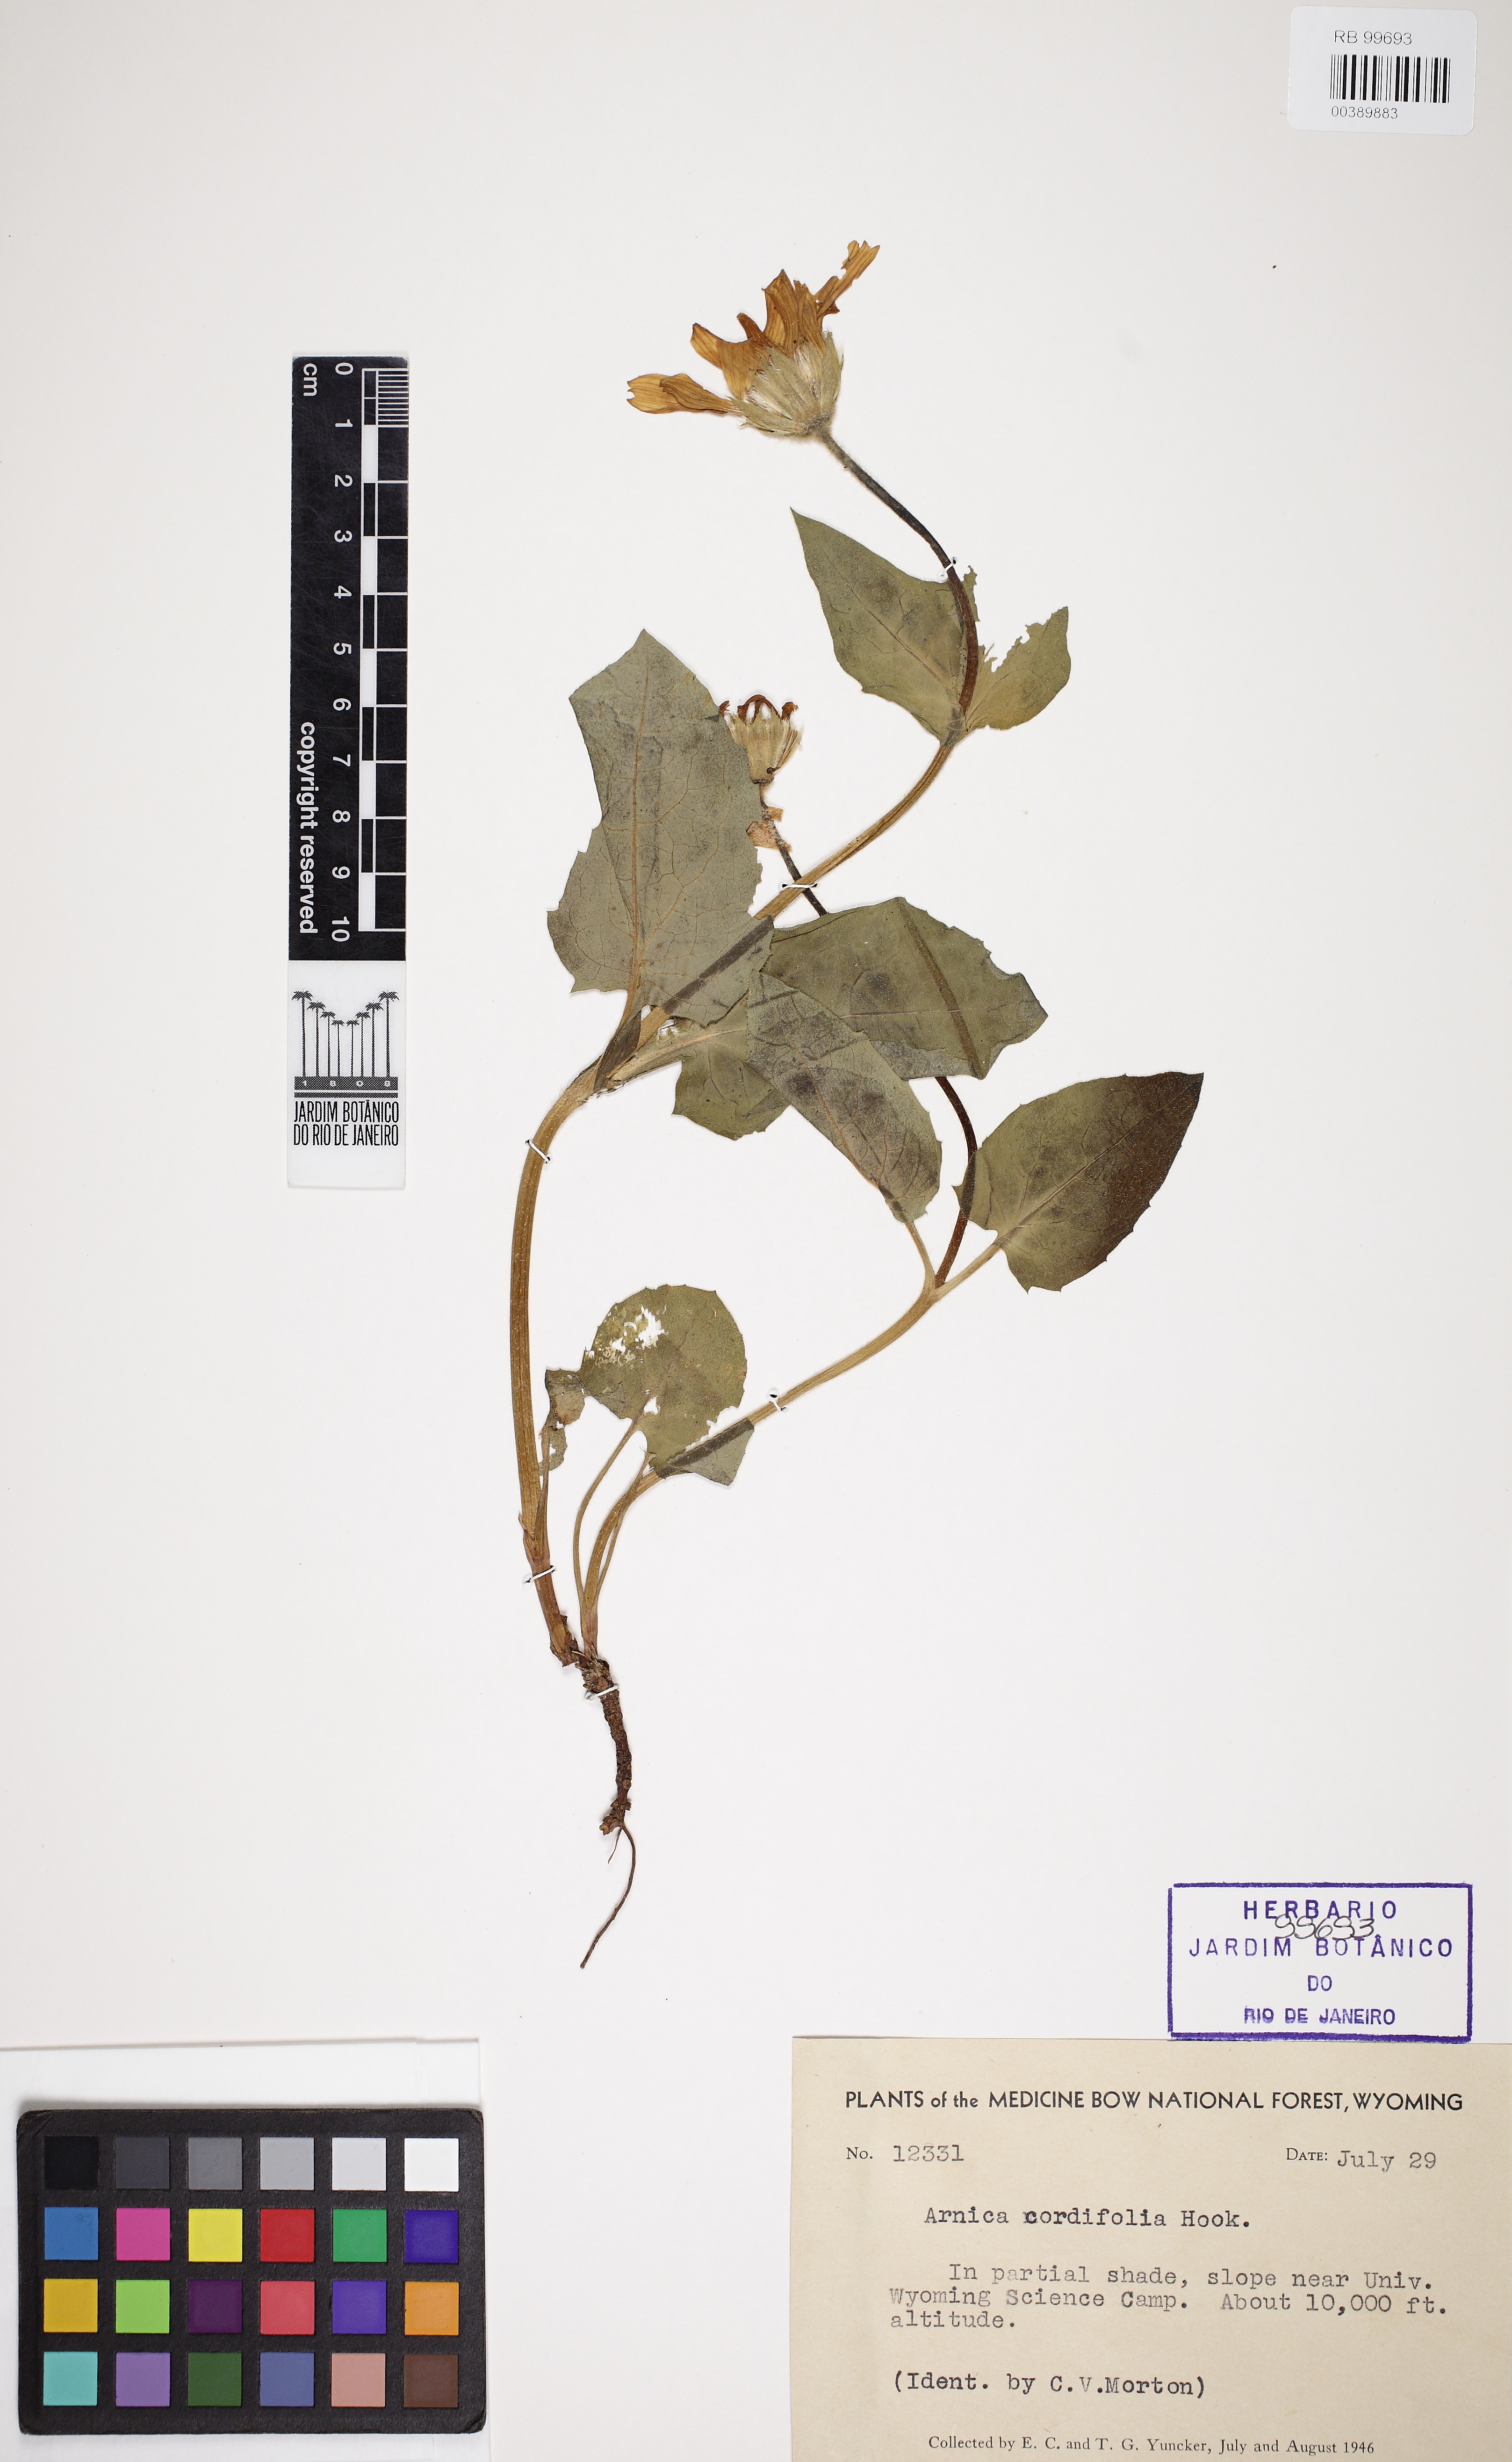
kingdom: Plantae
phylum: Tracheophyta
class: Magnoliopsida
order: Asterales
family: Asteraceae
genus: Arnica
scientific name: Arnica cordifolia
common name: Heart-leaf arnica
